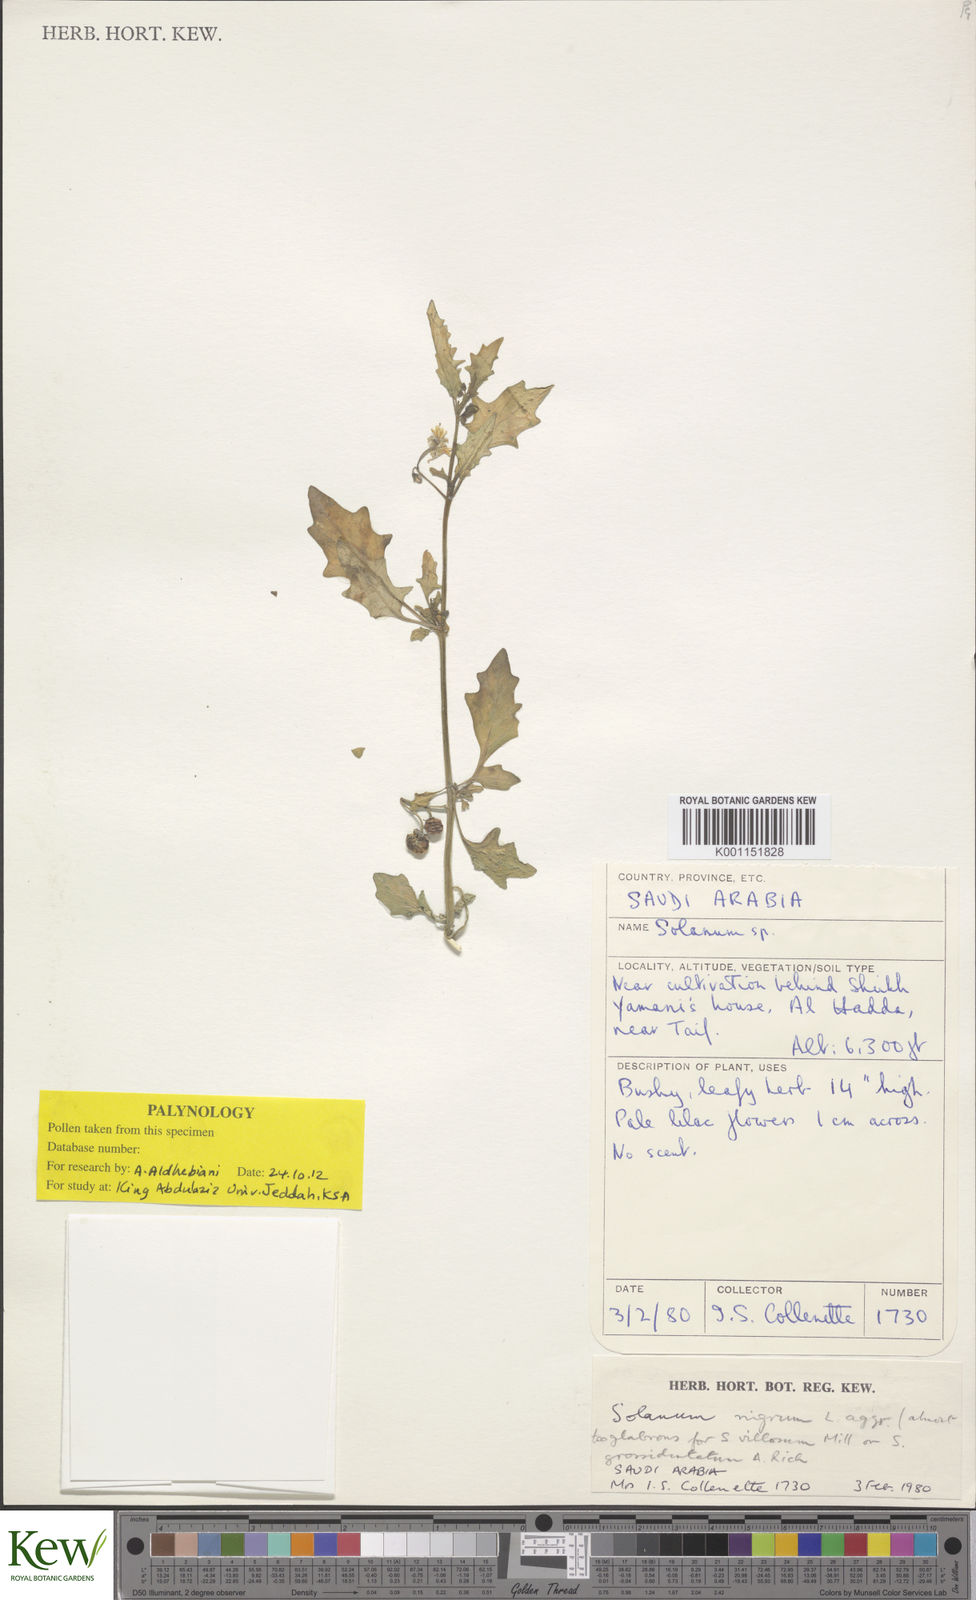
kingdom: Plantae
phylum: Tracheophyta
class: Magnoliopsida
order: Solanales
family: Solanaceae
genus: Solanum
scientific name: Solanum nigrum
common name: Black nightshade
